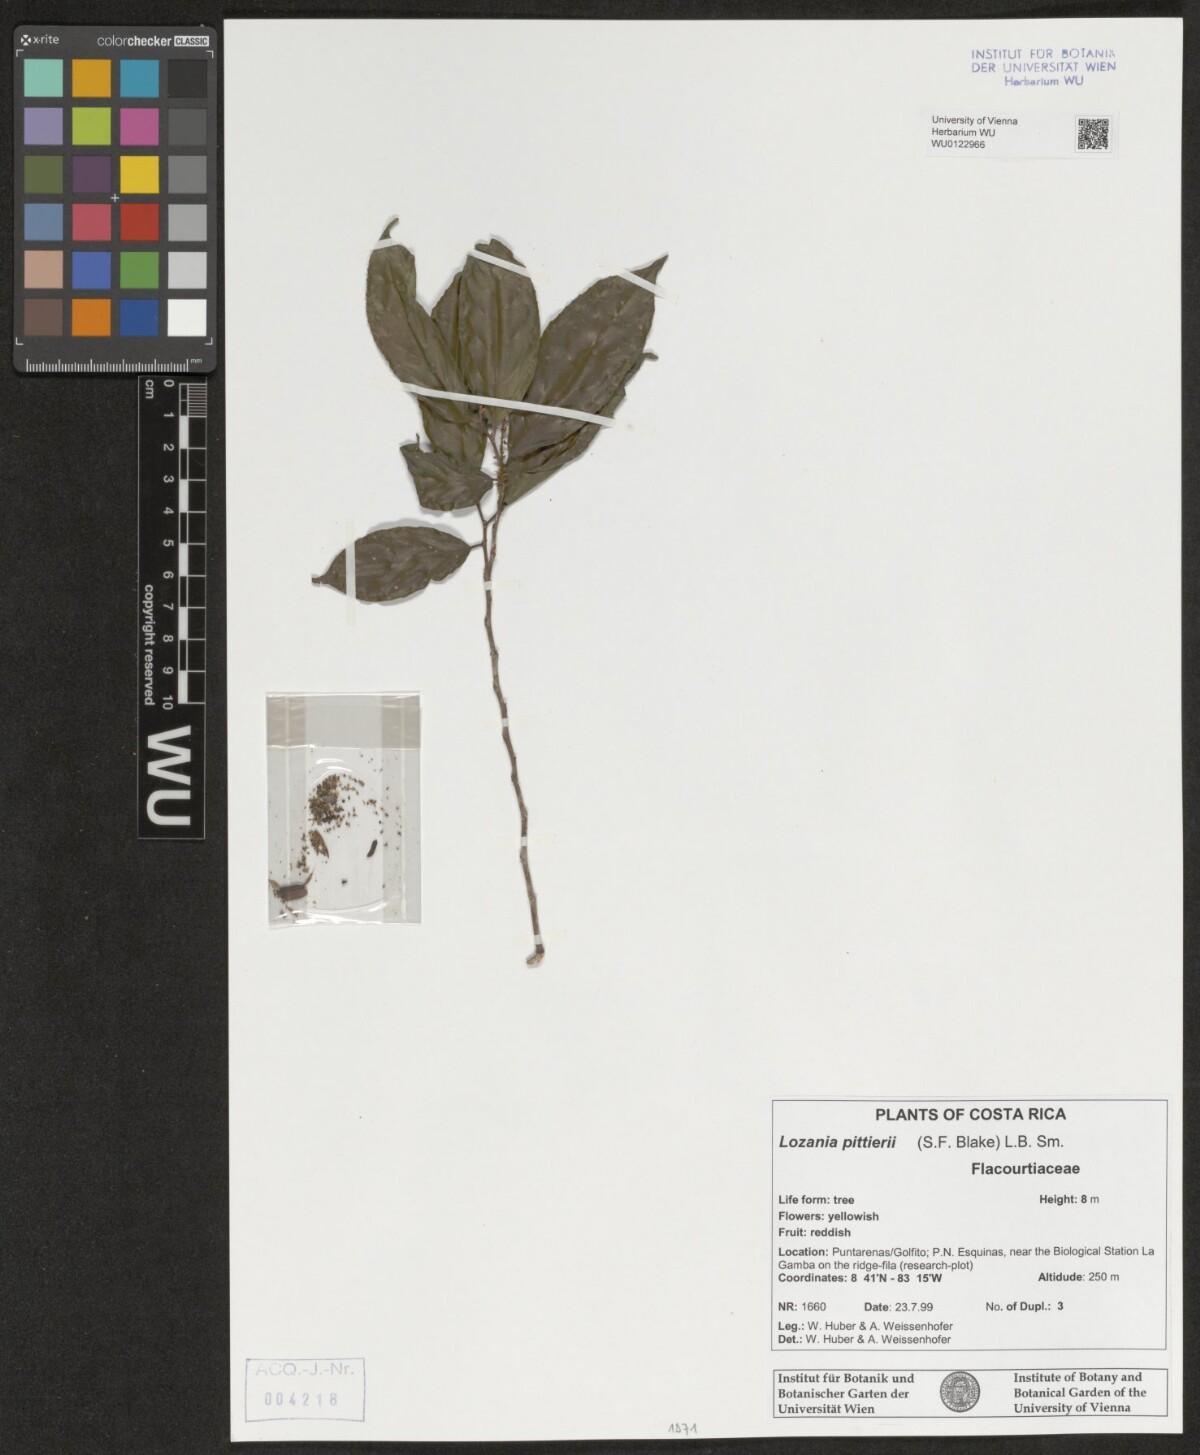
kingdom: Plantae
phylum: Tracheophyta
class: Magnoliopsida
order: Malpighiales
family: Lacistemataceae
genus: Lozania
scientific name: Lozania pittieri
